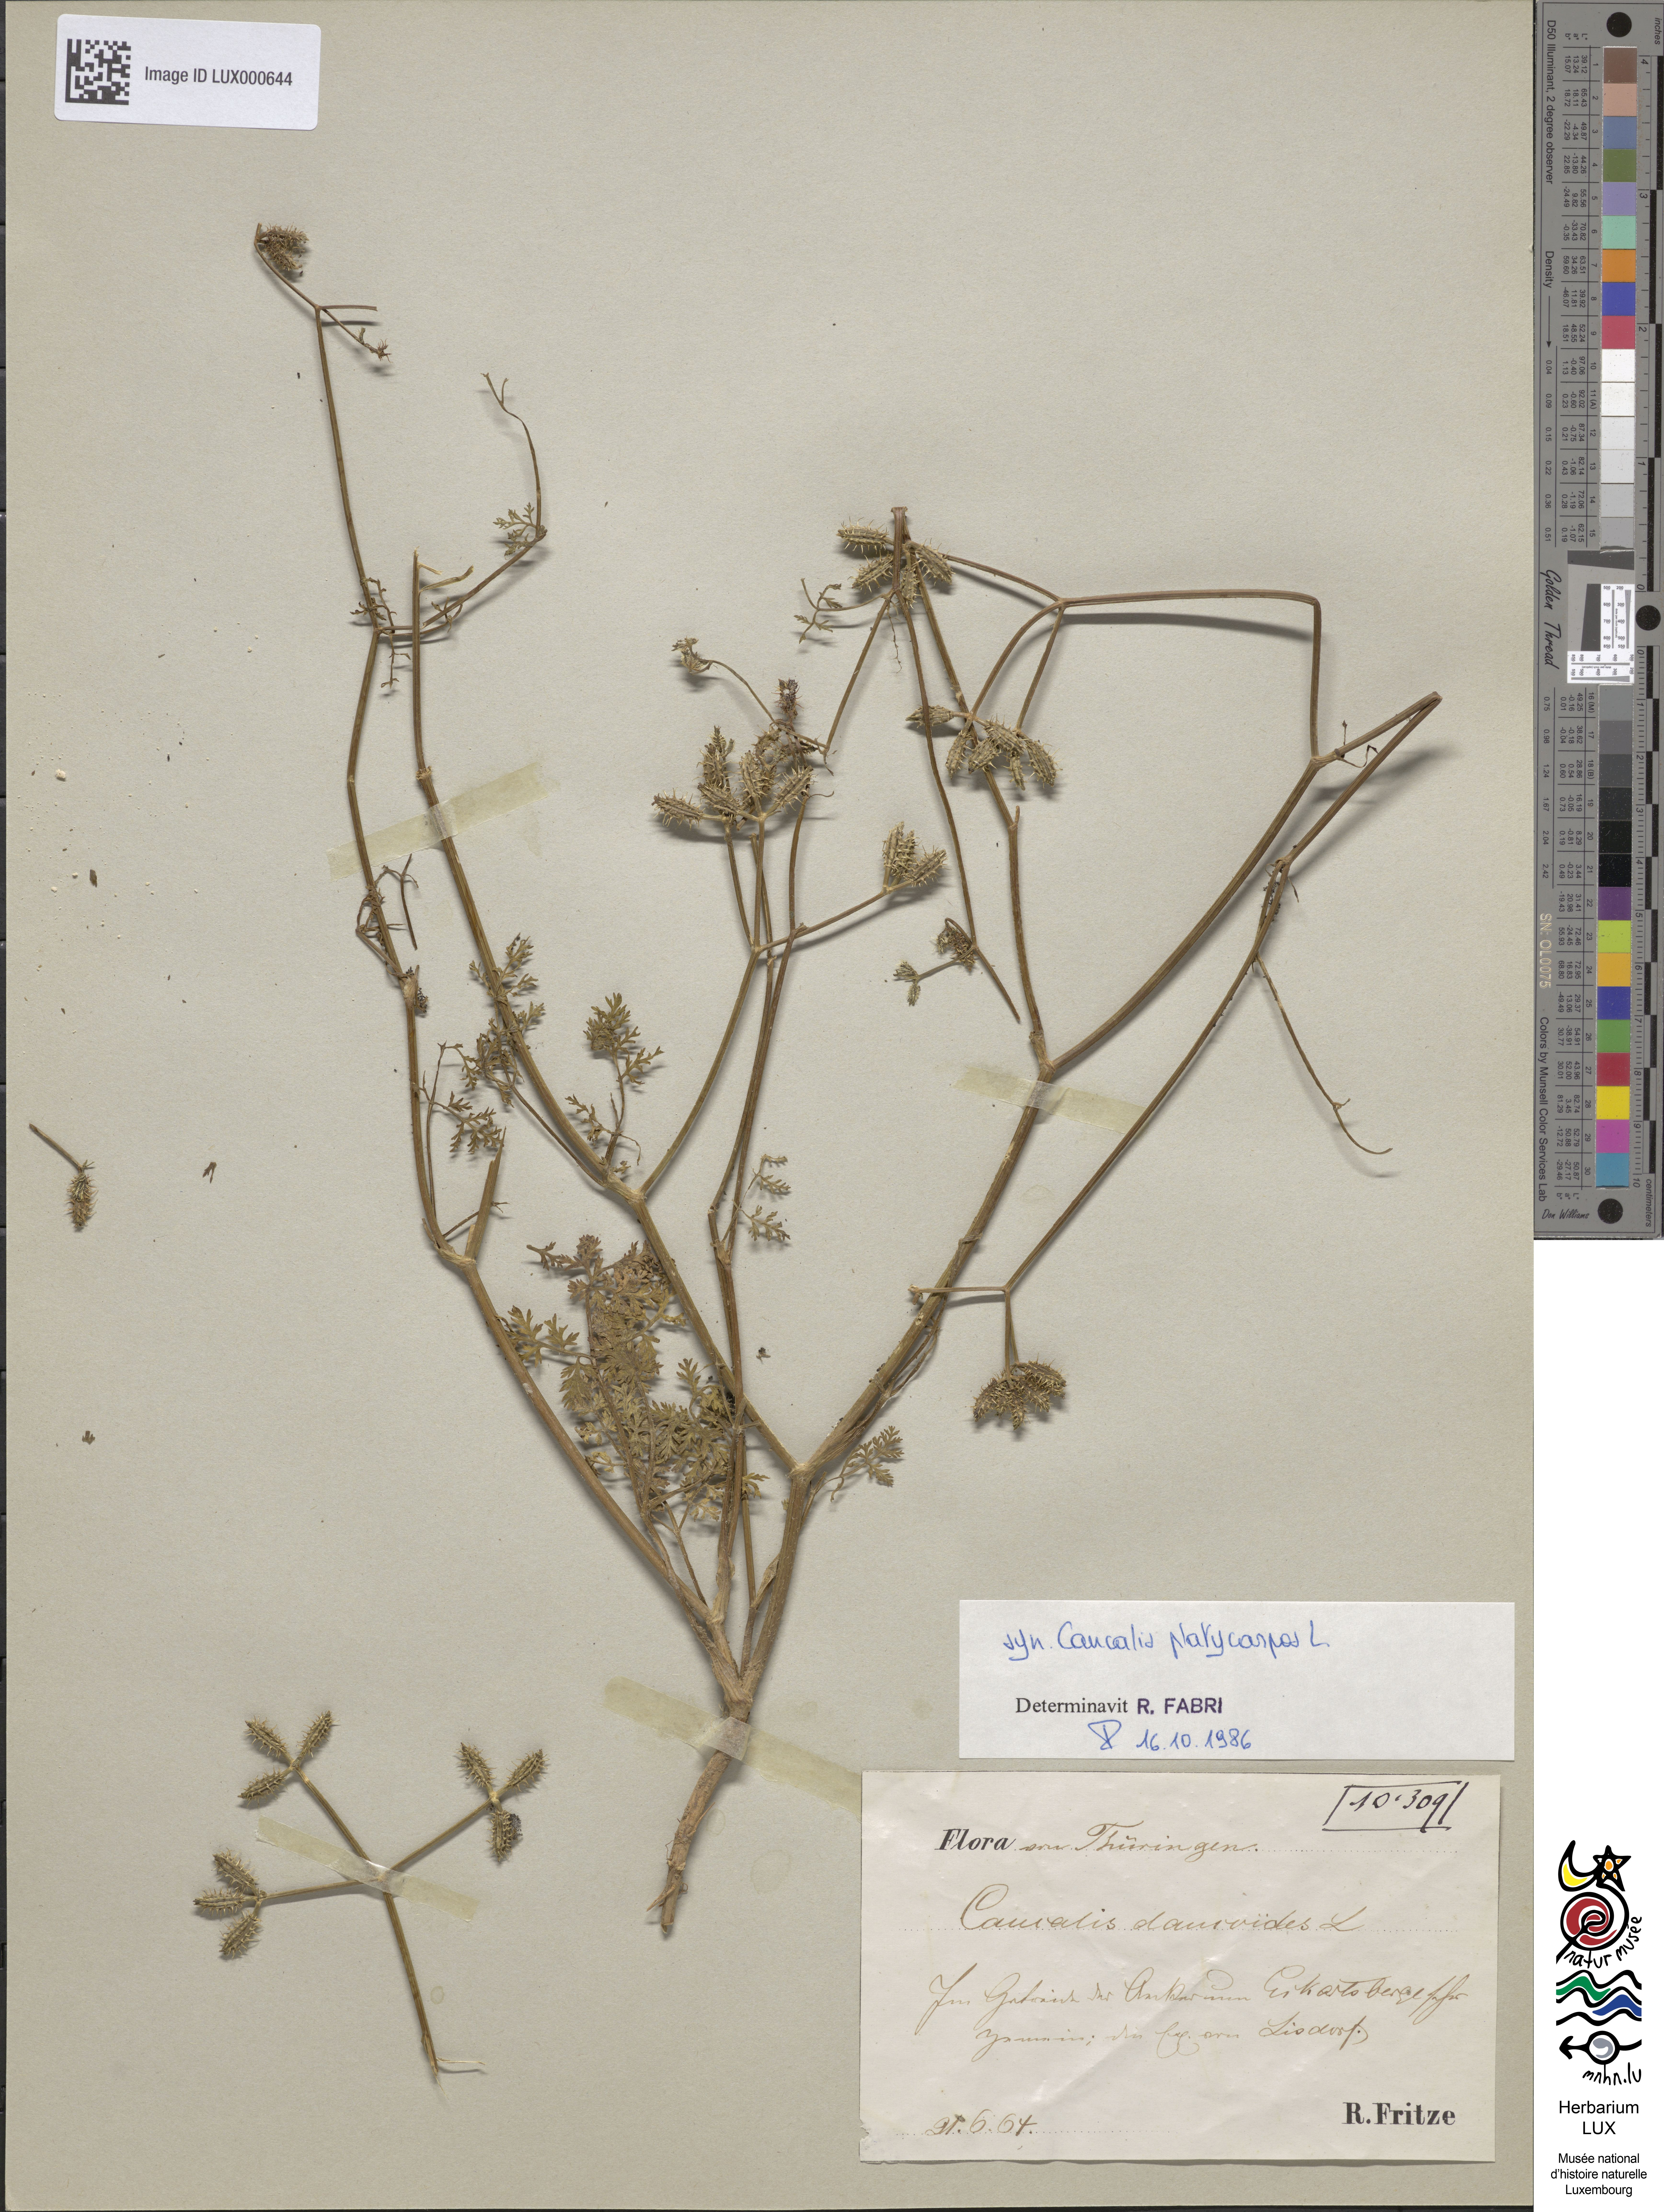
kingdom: Plantae
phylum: Tracheophyta
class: Magnoliopsida
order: Apiales
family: Apiaceae
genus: Orlaya
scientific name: Orlaya daucoides
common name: Flat-fruit orlaya
